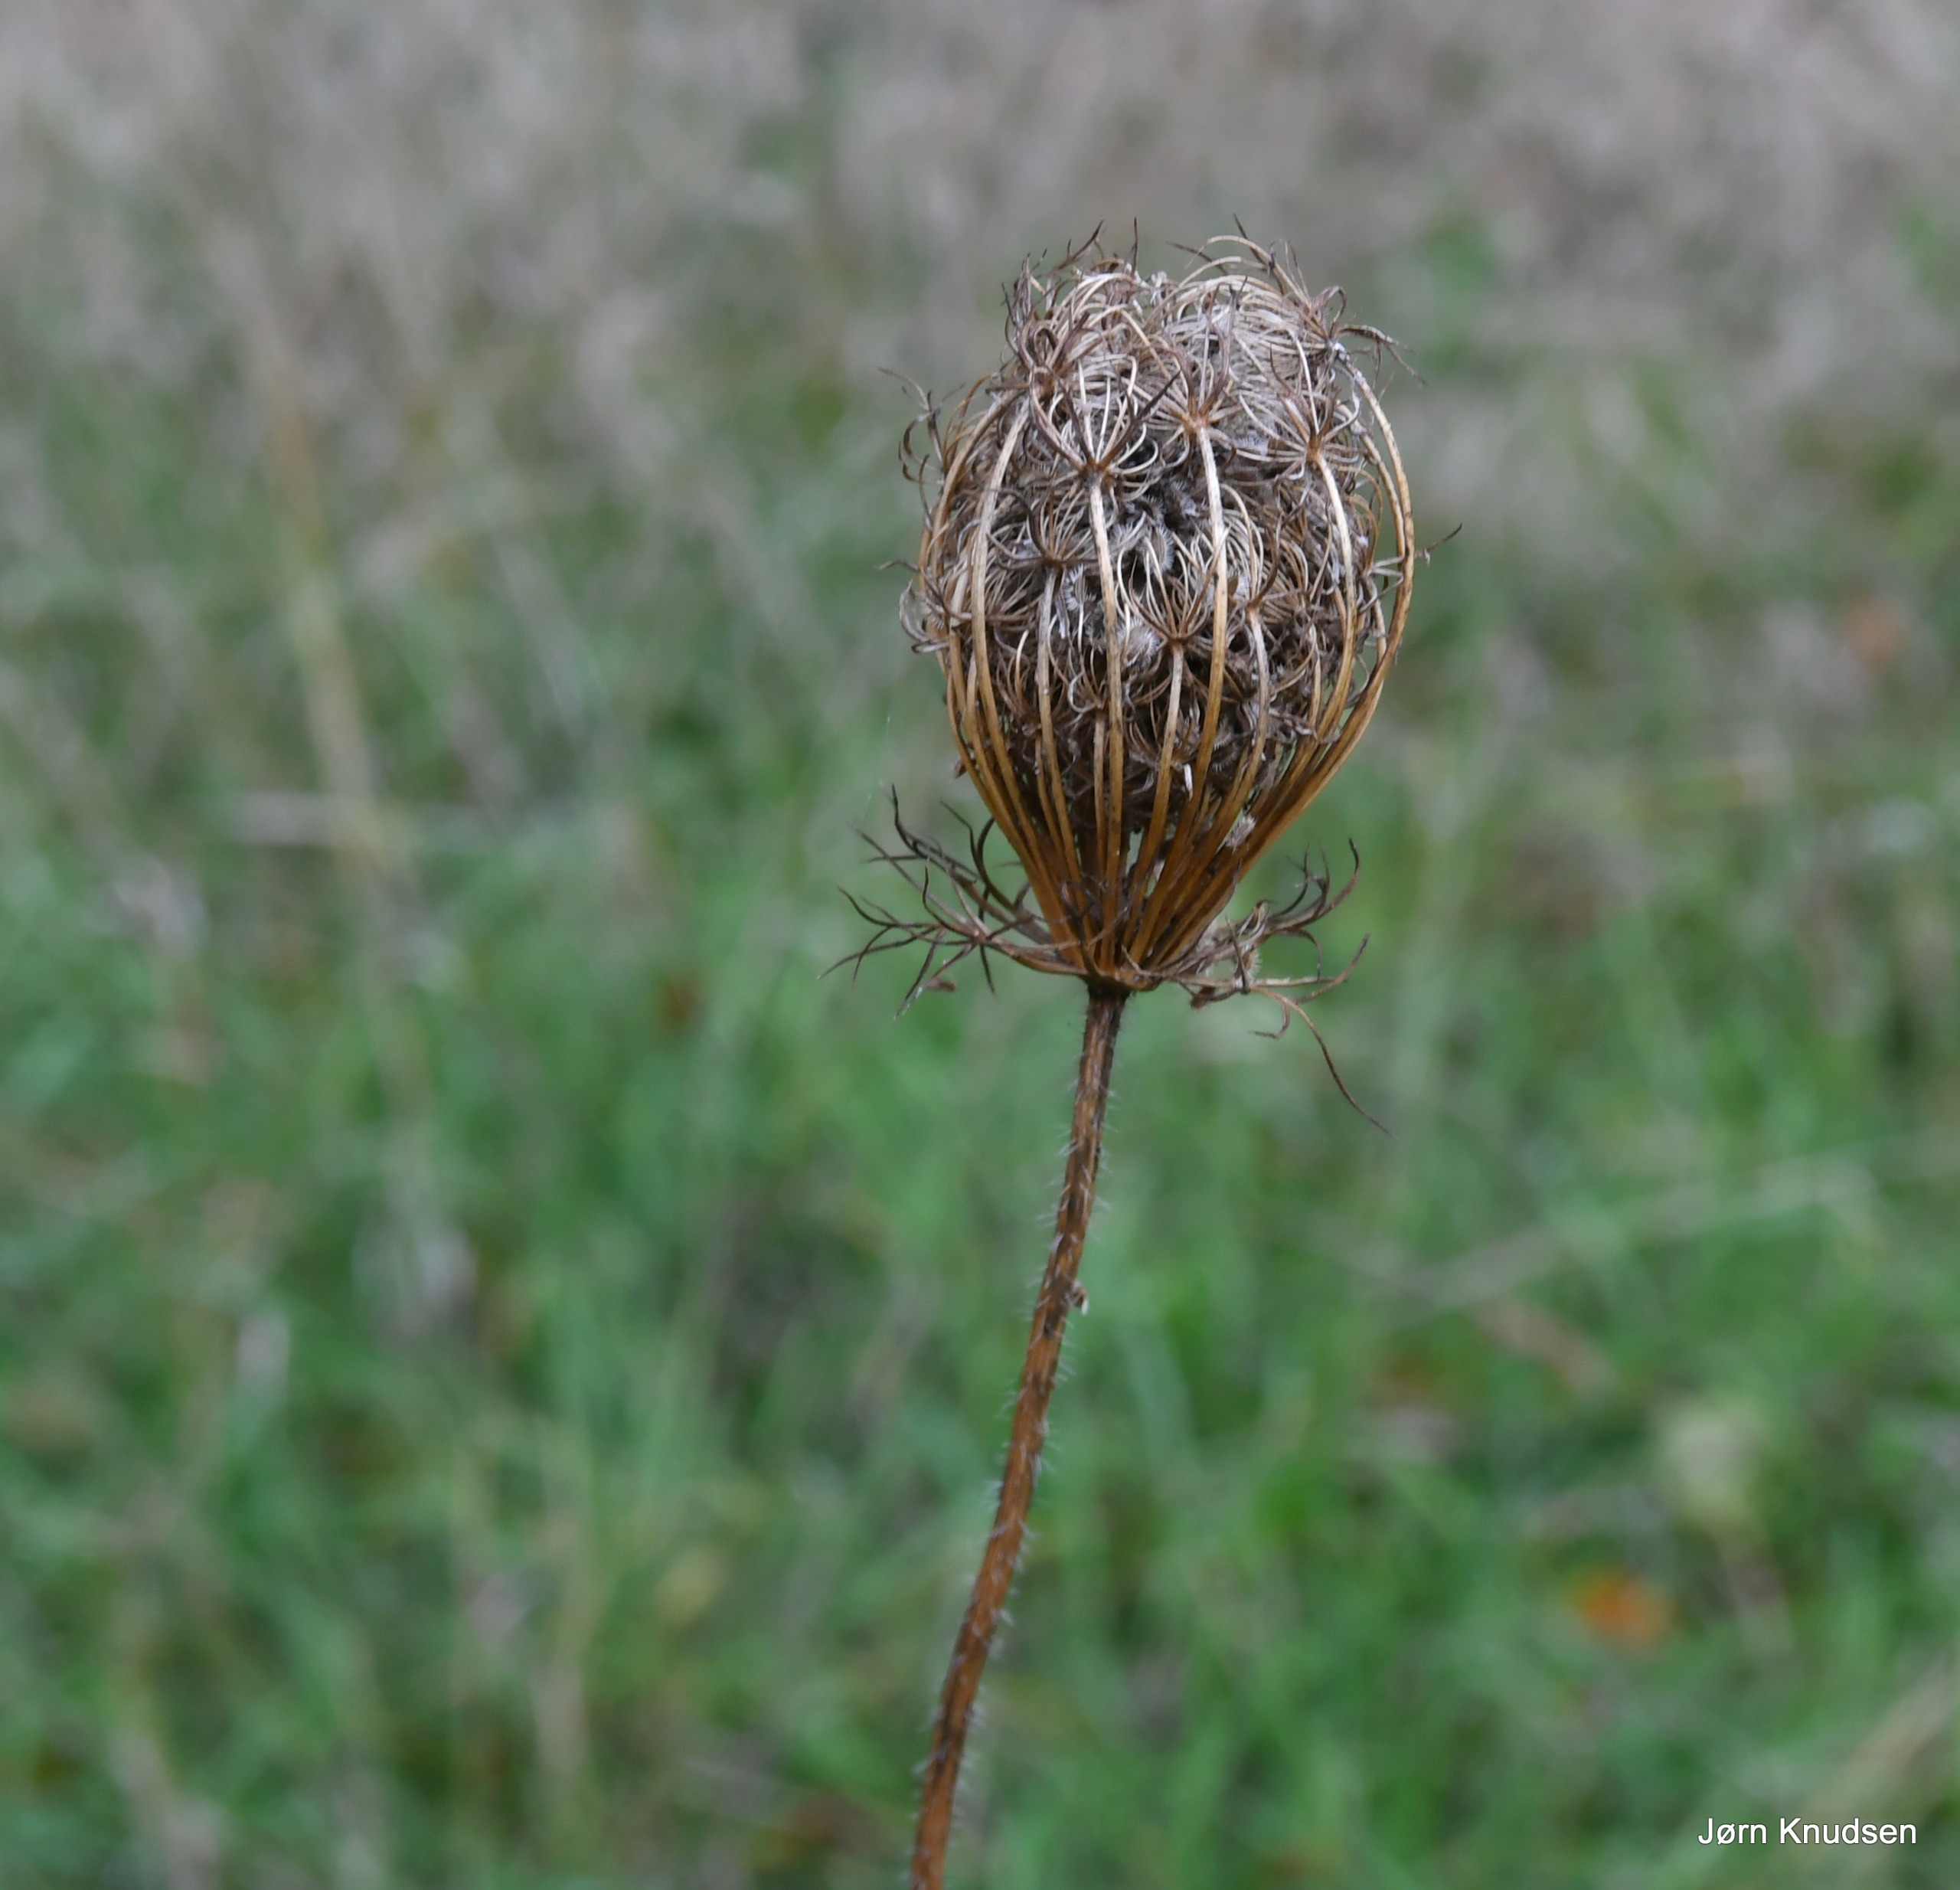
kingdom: Plantae
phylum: Tracheophyta
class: Magnoliopsida
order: Apiales
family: Apiaceae
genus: Daucus
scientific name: Daucus carota
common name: Gulerod
